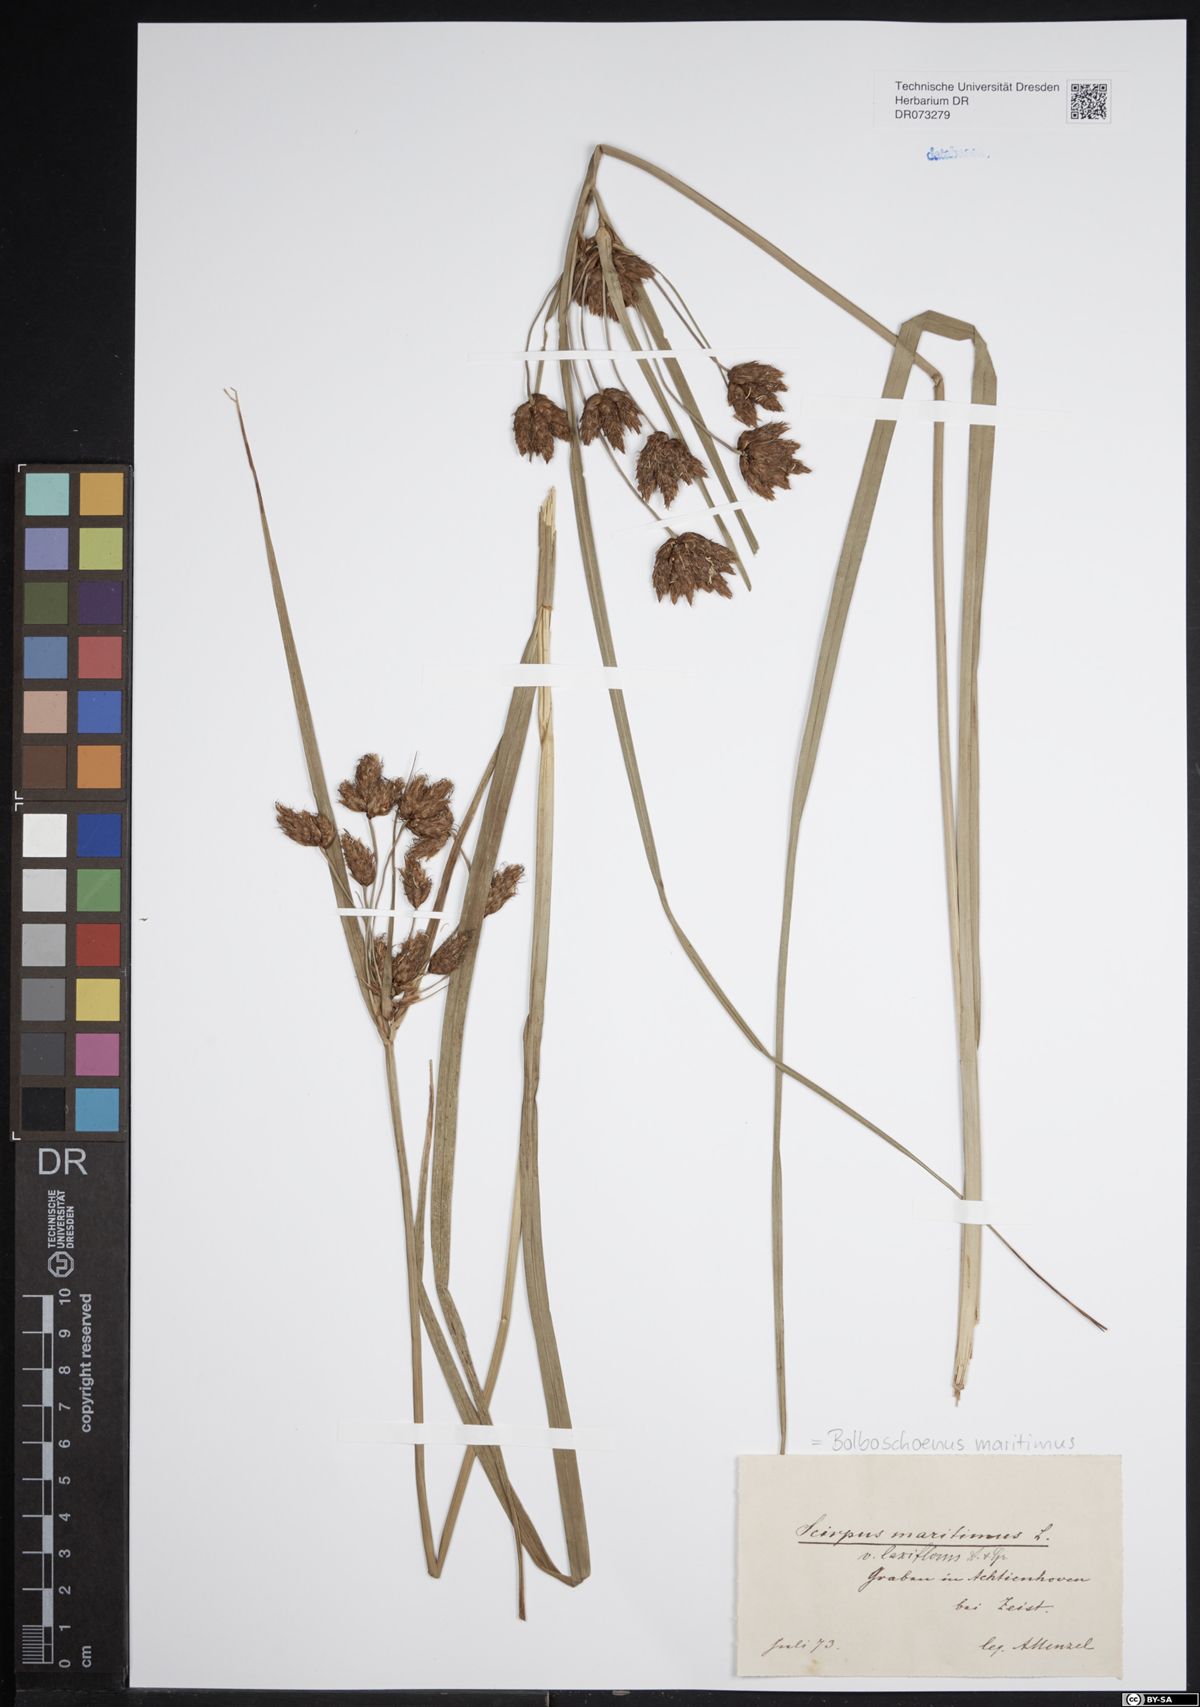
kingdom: Plantae
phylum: Tracheophyta
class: Liliopsida
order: Poales
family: Cyperaceae
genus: Bolboschoenus
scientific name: Bolboschoenus maritimus
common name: Sea club-rush
